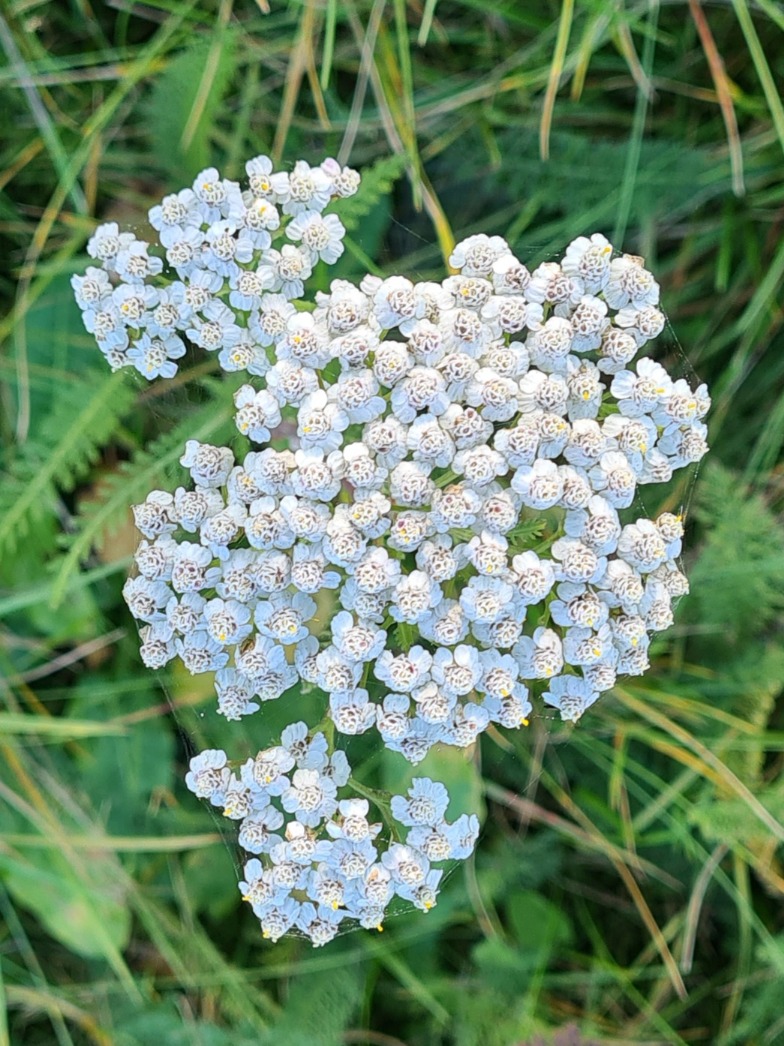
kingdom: Plantae
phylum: Tracheophyta
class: Magnoliopsida
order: Asterales
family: Asteraceae
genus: Achillea
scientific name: Achillea millefolium
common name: Almindelig røllike
